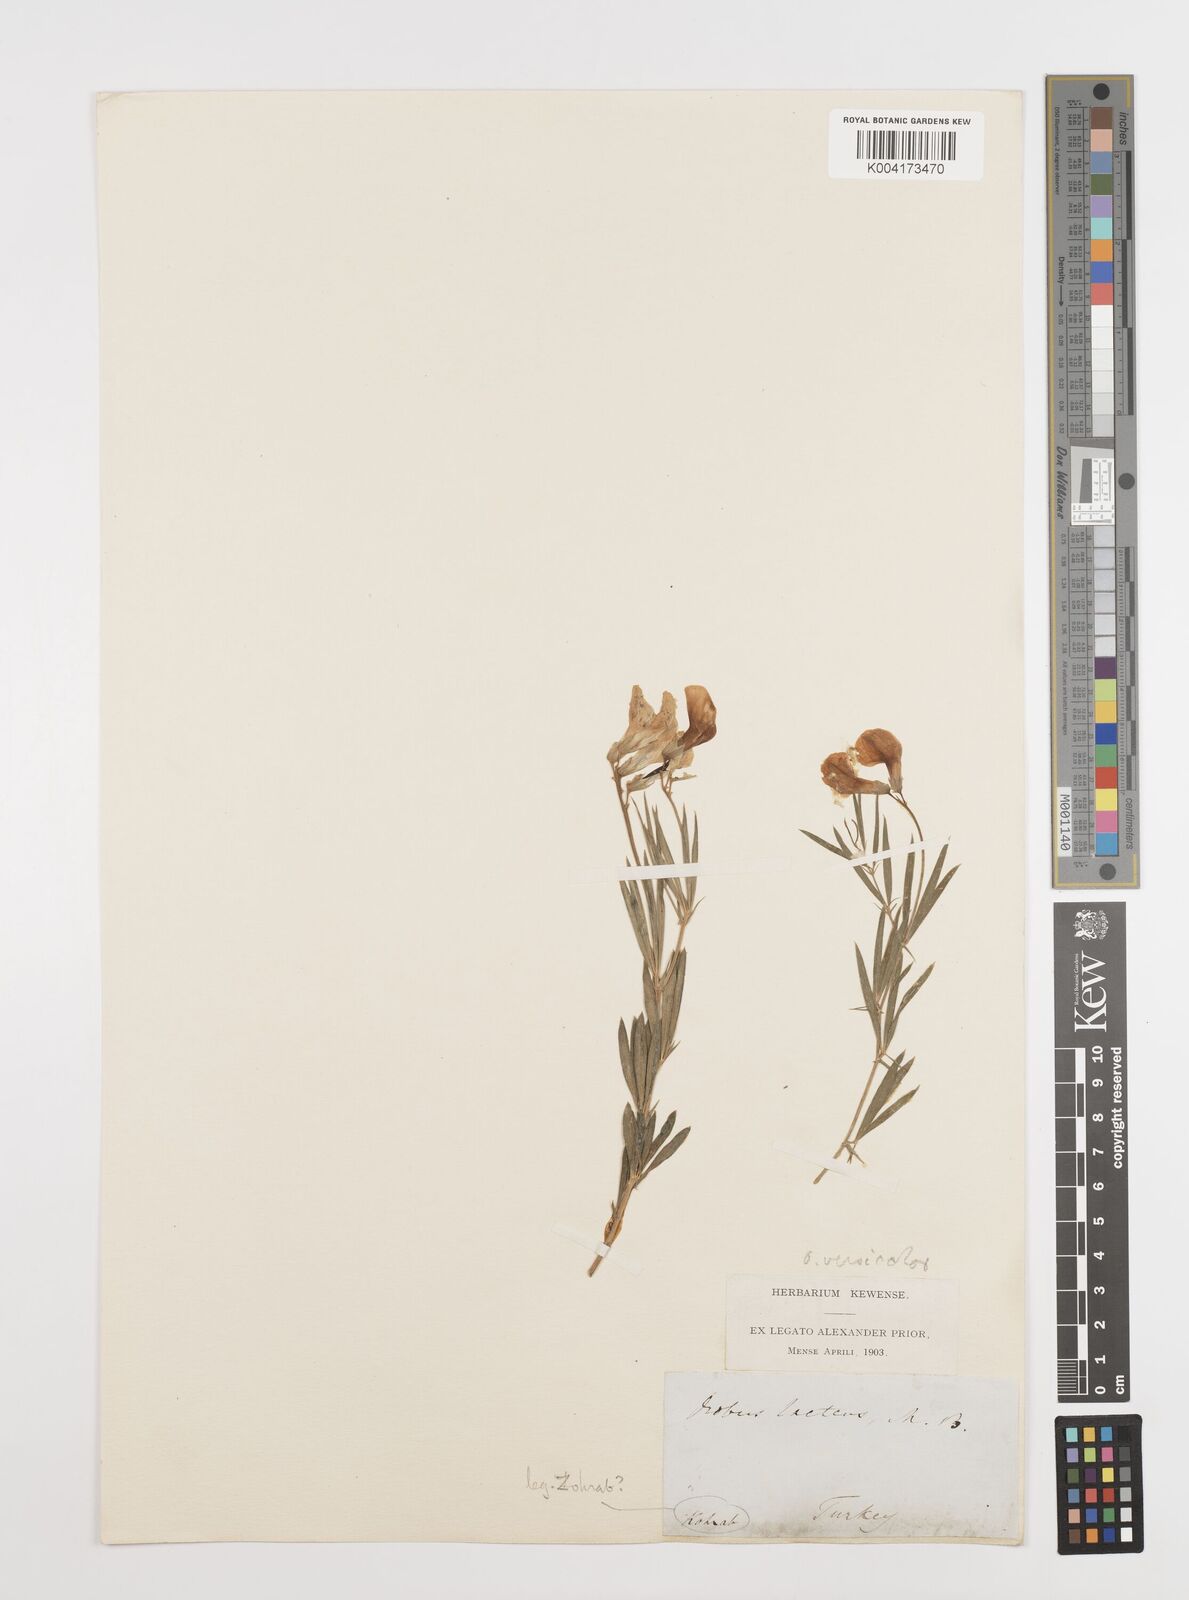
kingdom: Plantae
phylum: Tracheophyta
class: Magnoliopsida
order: Fabales
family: Fabaceae
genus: Lathyrus
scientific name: Lathyrus brachypterus
